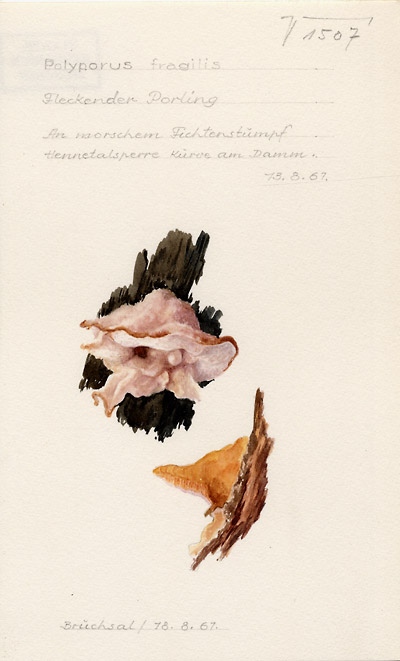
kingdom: Fungi
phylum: Basidiomycota
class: Agaricomycetes
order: Polyporales
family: Meruliaceae
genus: Sarcodontia
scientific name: Sarcodontia spumea
